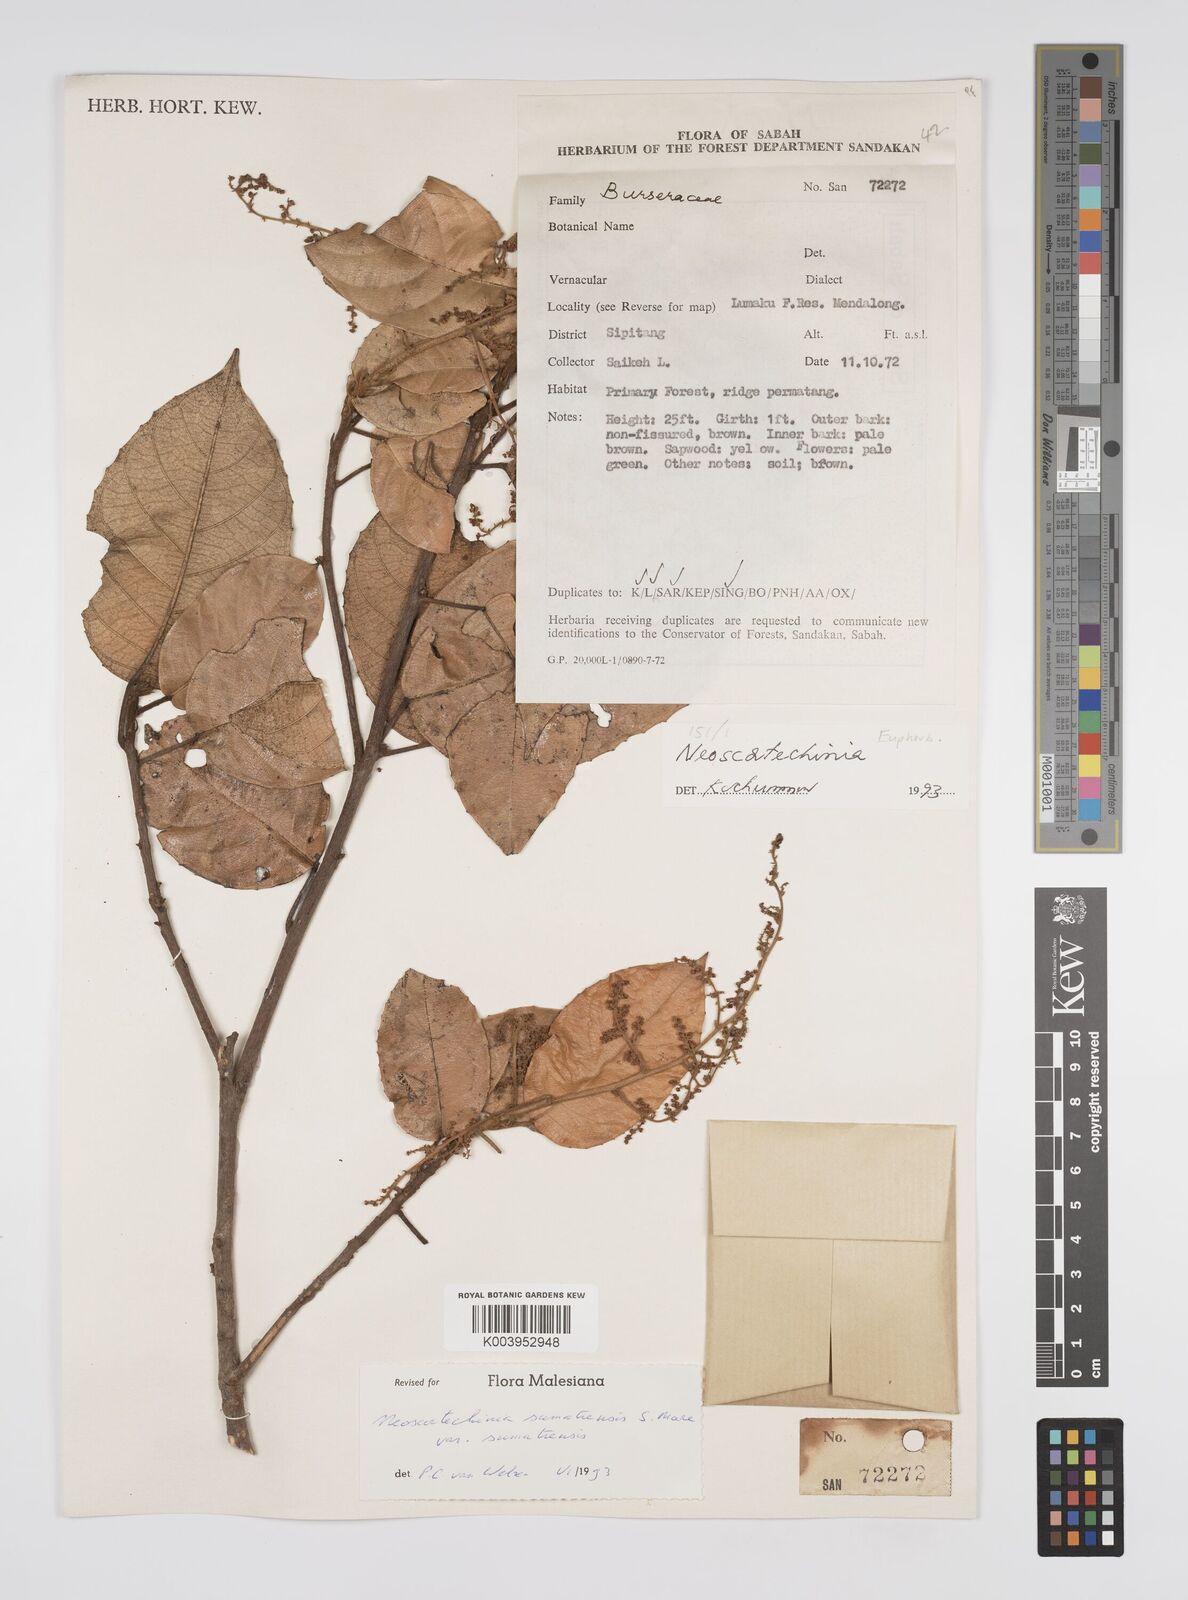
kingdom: Plantae
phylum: Tracheophyta
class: Magnoliopsida
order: Malpighiales
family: Euphorbiaceae
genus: Neoscortechinia
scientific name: Neoscortechinia sumatrensis
